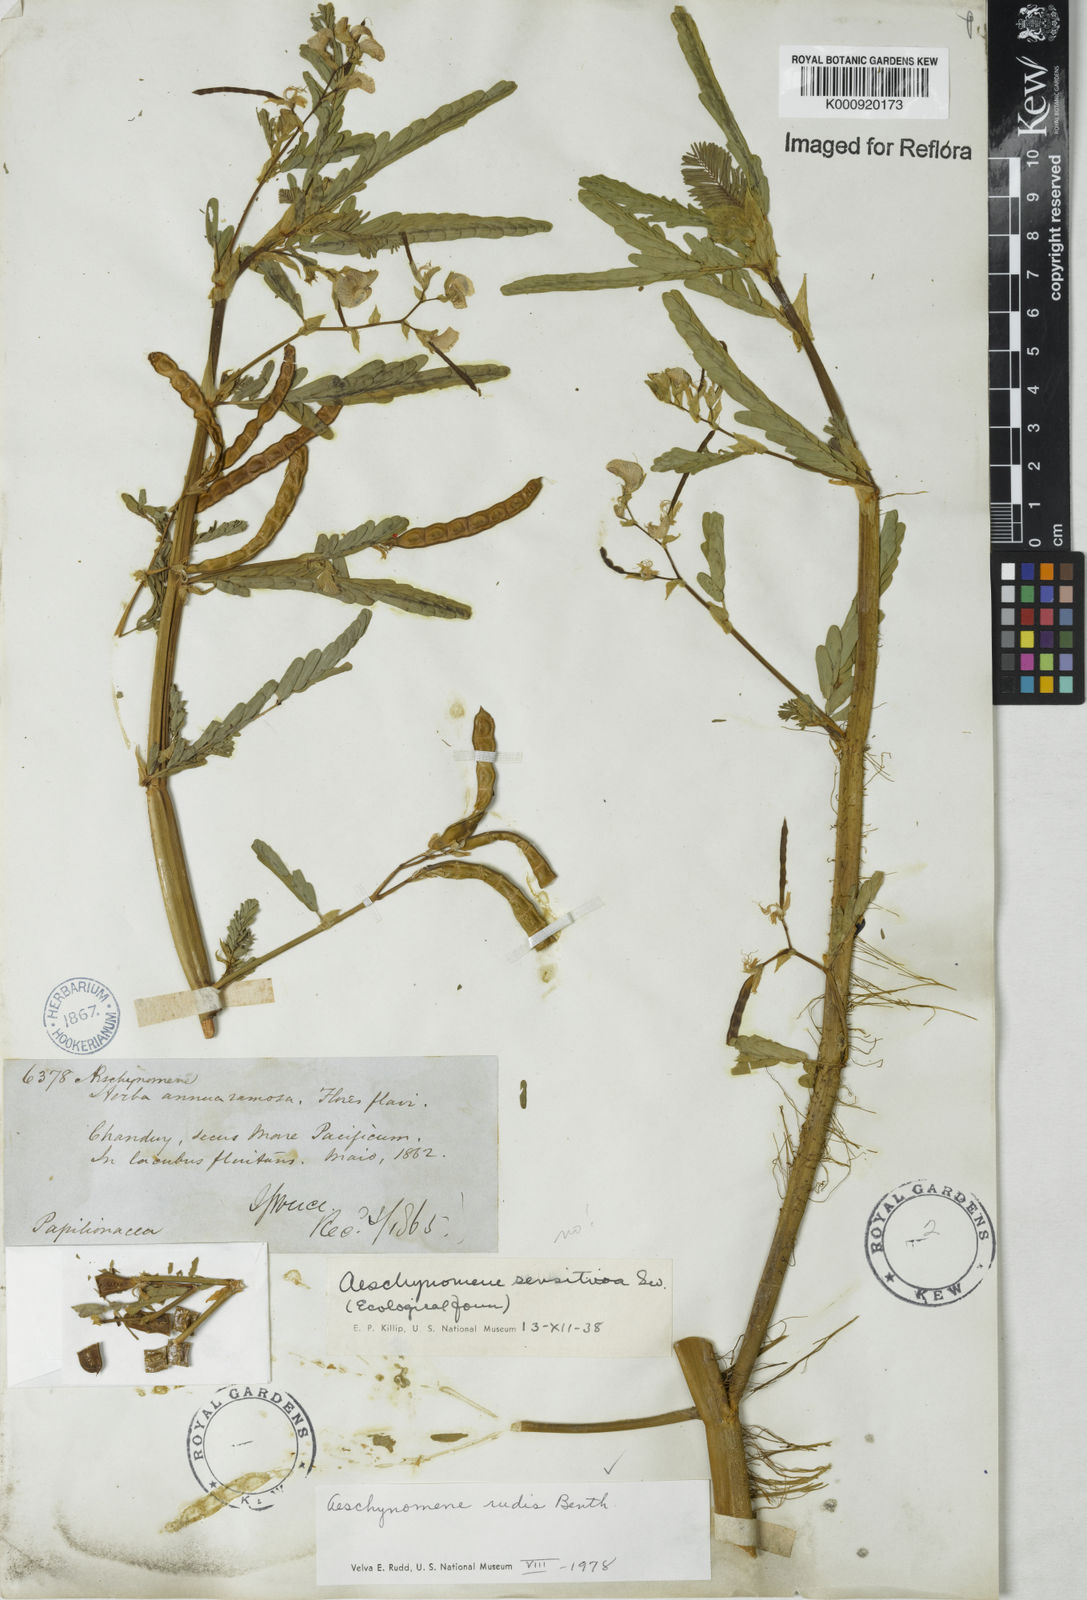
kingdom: Plantae
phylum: Tracheophyta
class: Magnoliopsida
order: Fabales
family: Fabaceae
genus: Aeschynomene
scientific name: Aeschynomene rudis
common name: Rough joint-vetch
